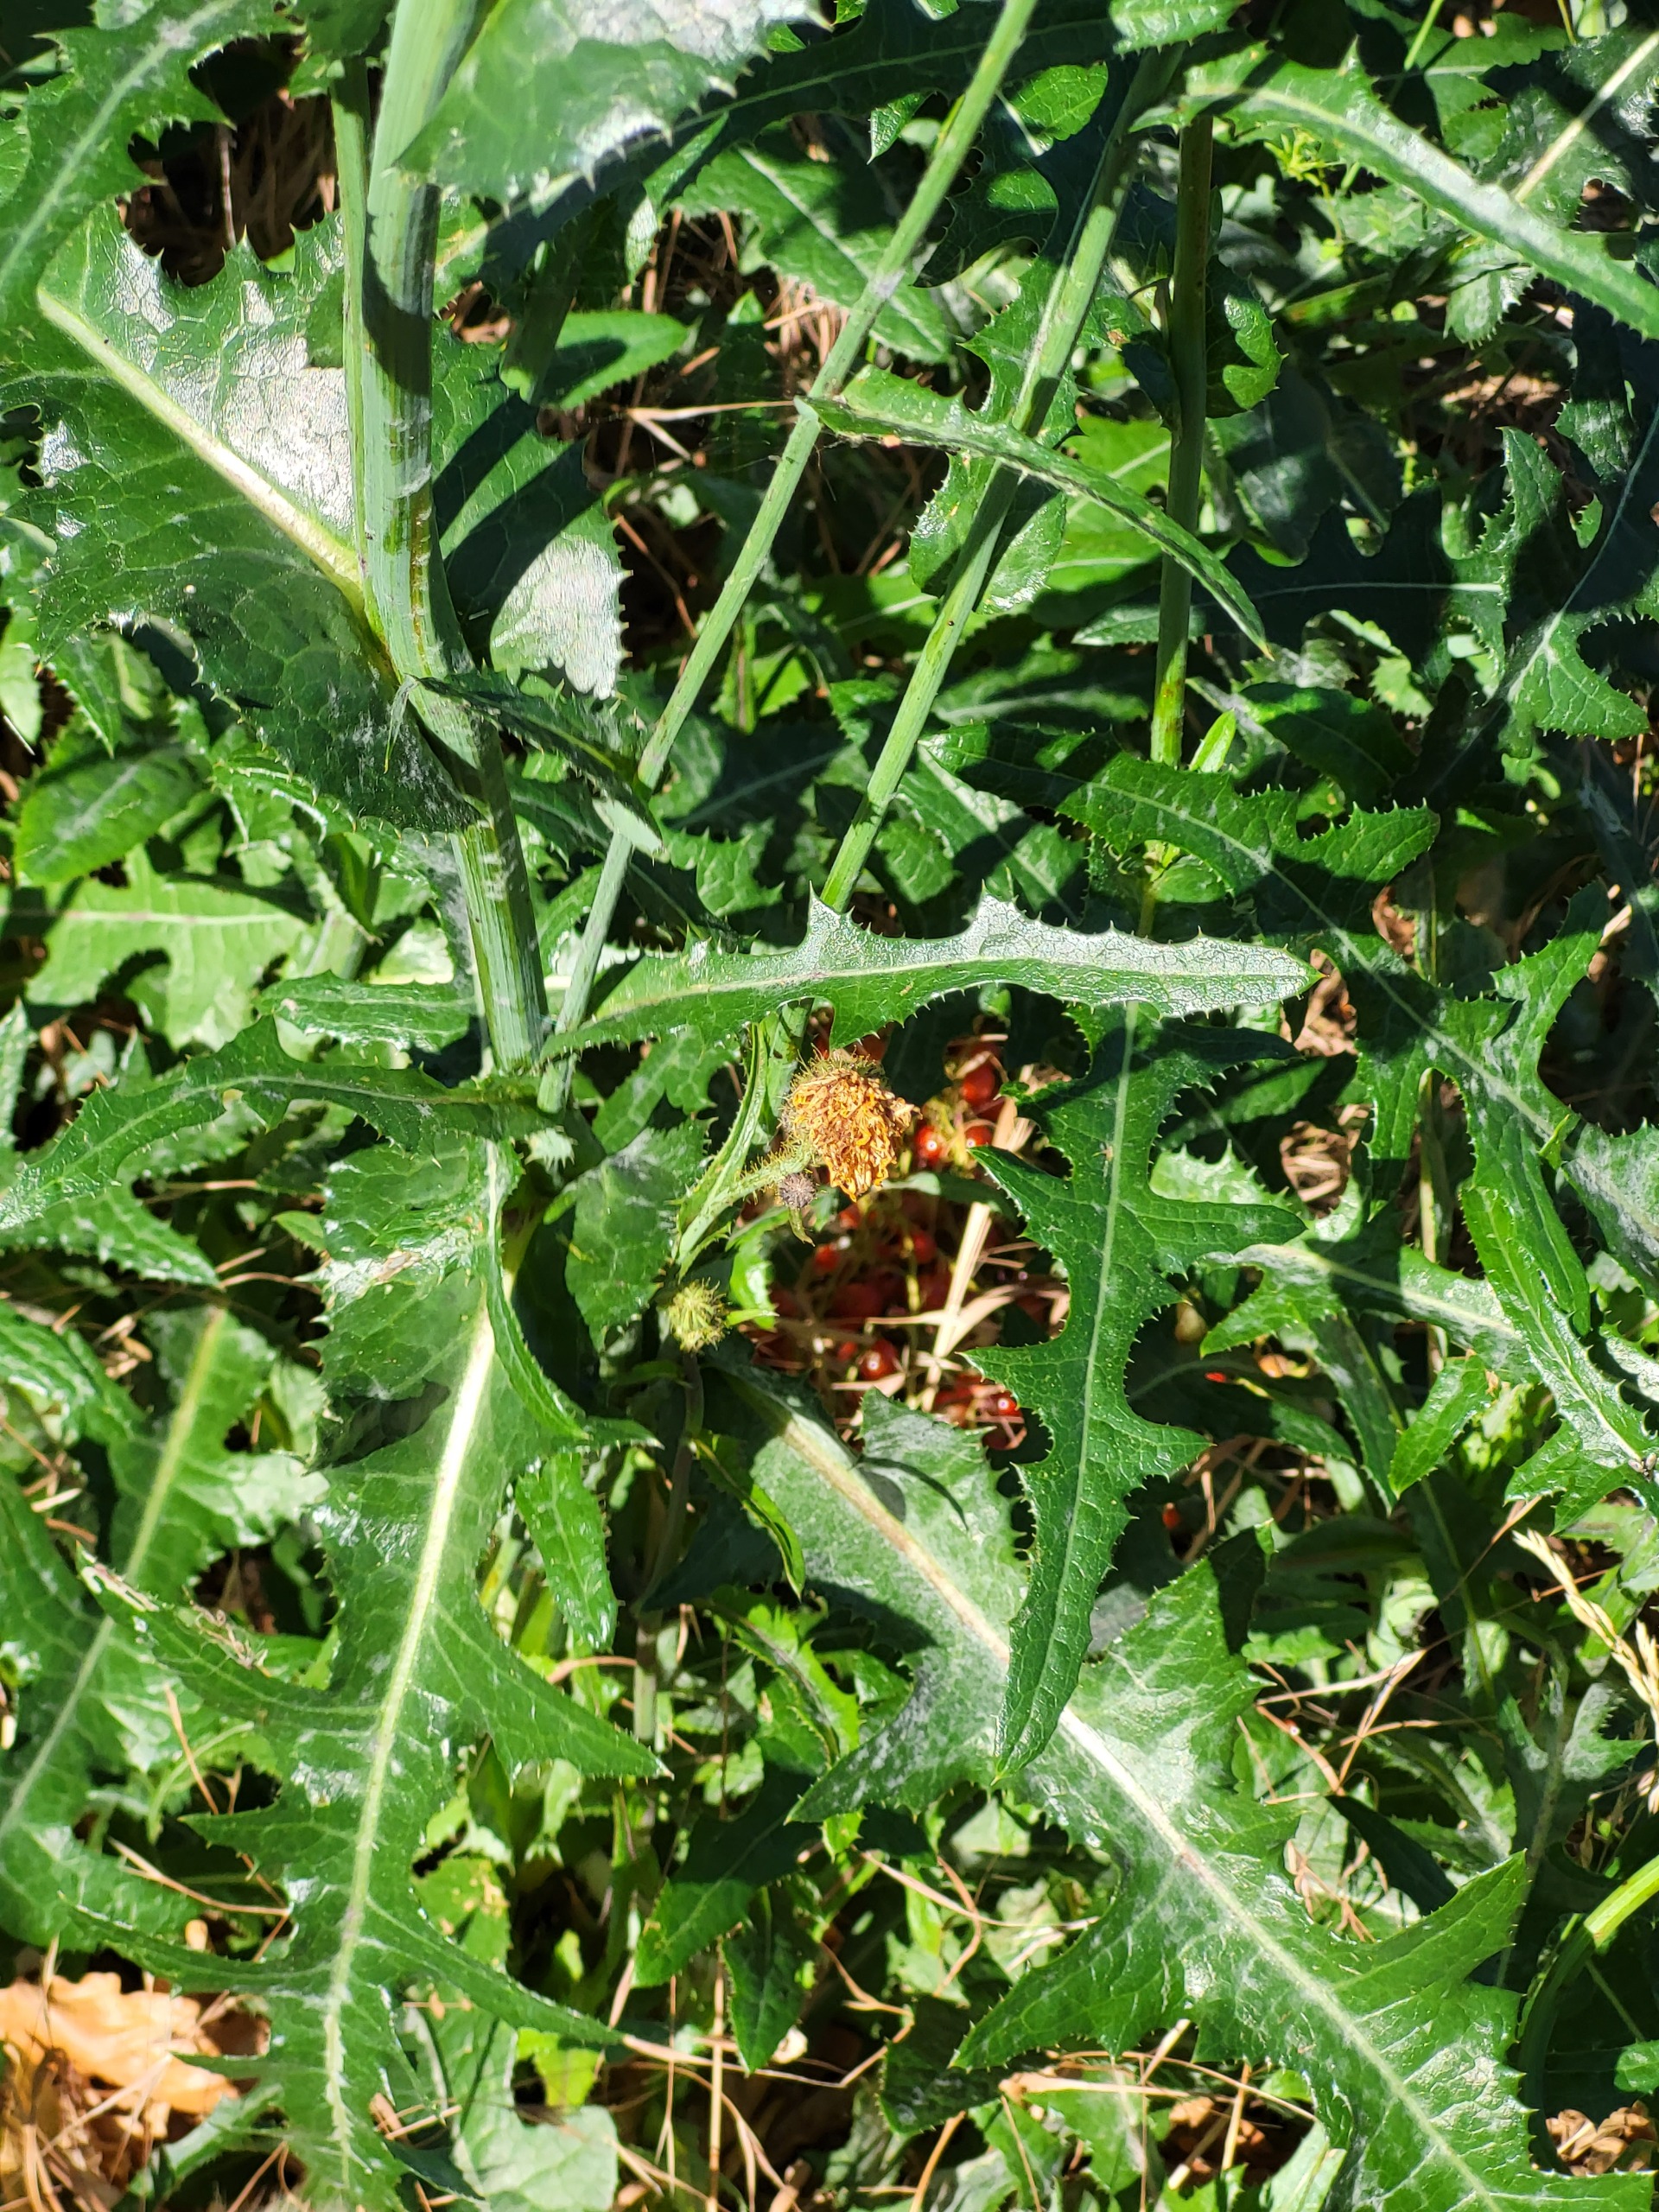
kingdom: Plantae
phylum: Tracheophyta
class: Magnoliopsida
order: Asterales
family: Asteraceae
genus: Sonchus
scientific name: Sonchus arvensis
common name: Ager-svinemælk
